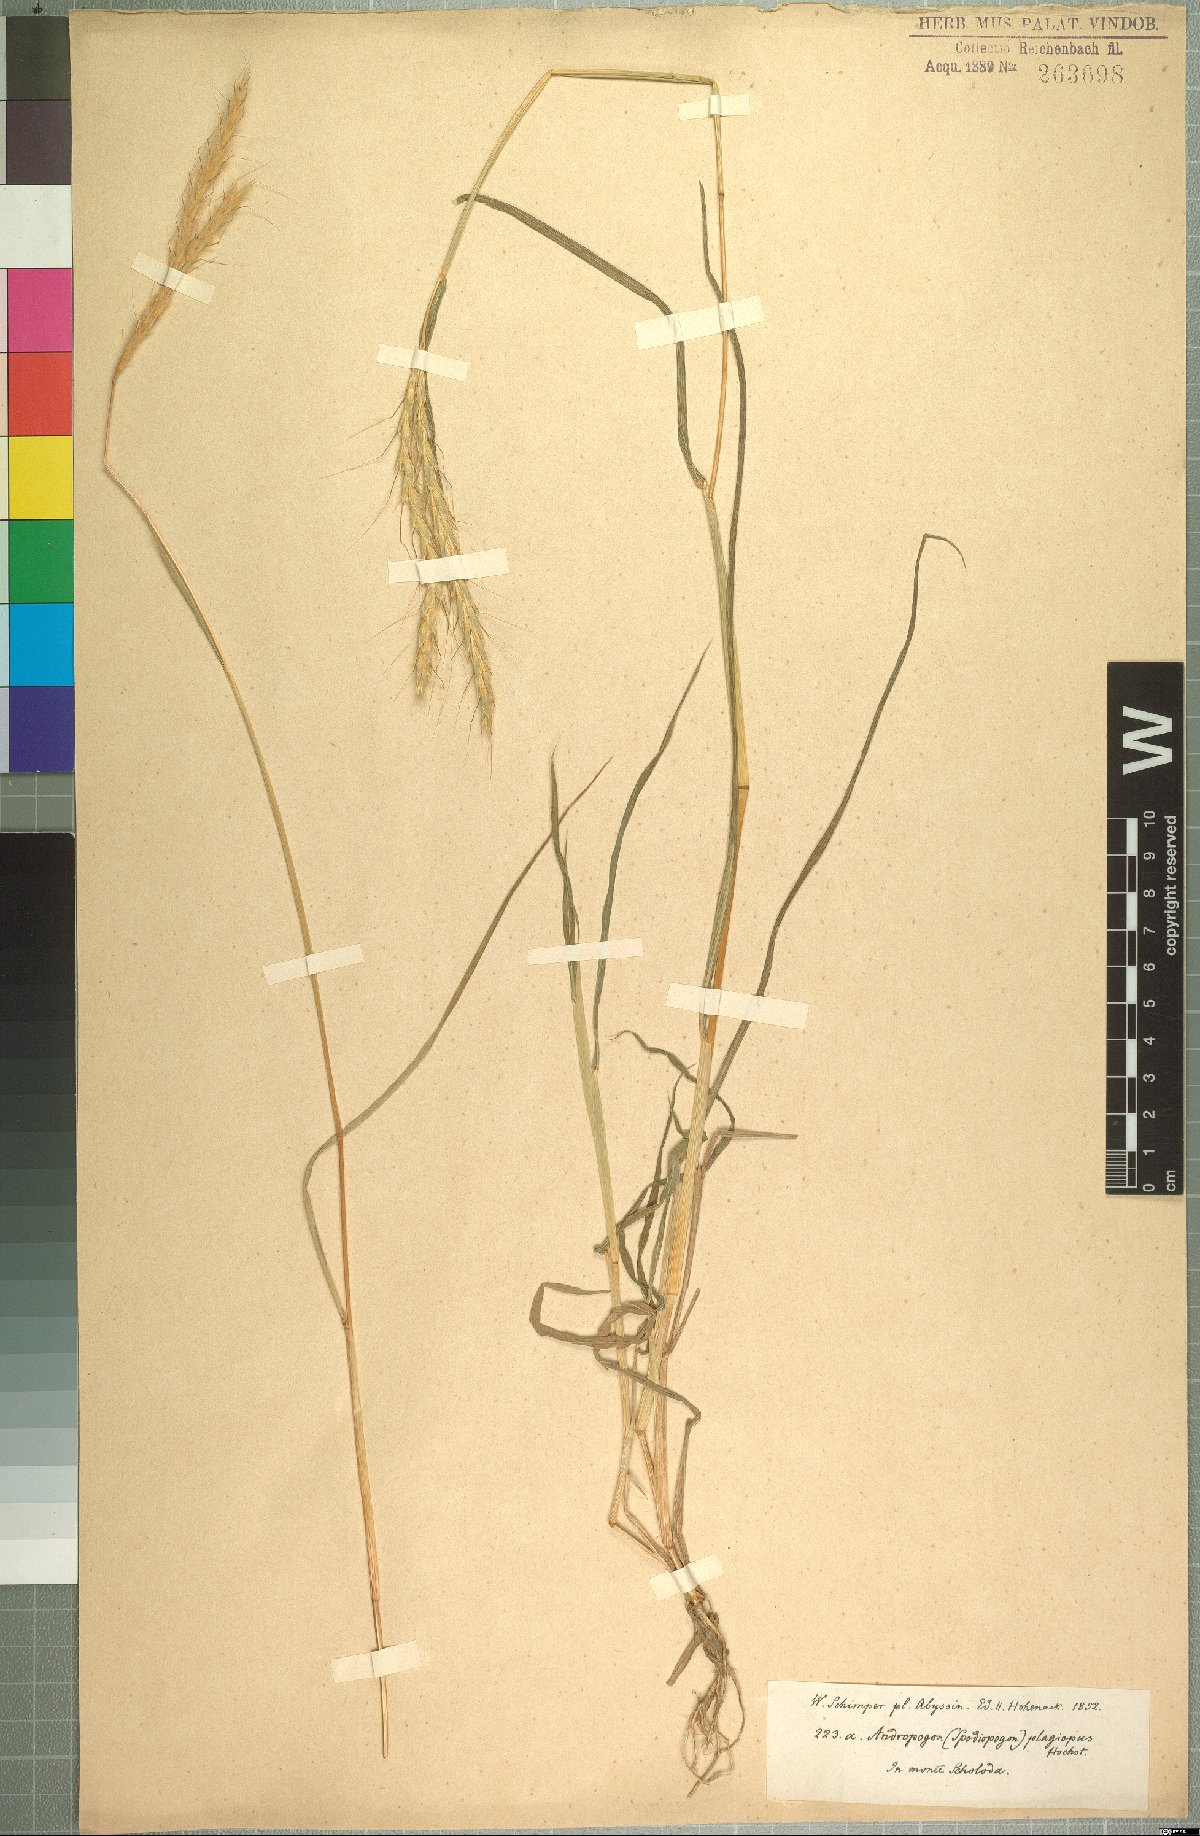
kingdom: Plantae
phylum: Tracheophyta
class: Liliopsida
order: Poales
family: Poaceae
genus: Andropogon
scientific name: Andropogon abyssinicus
